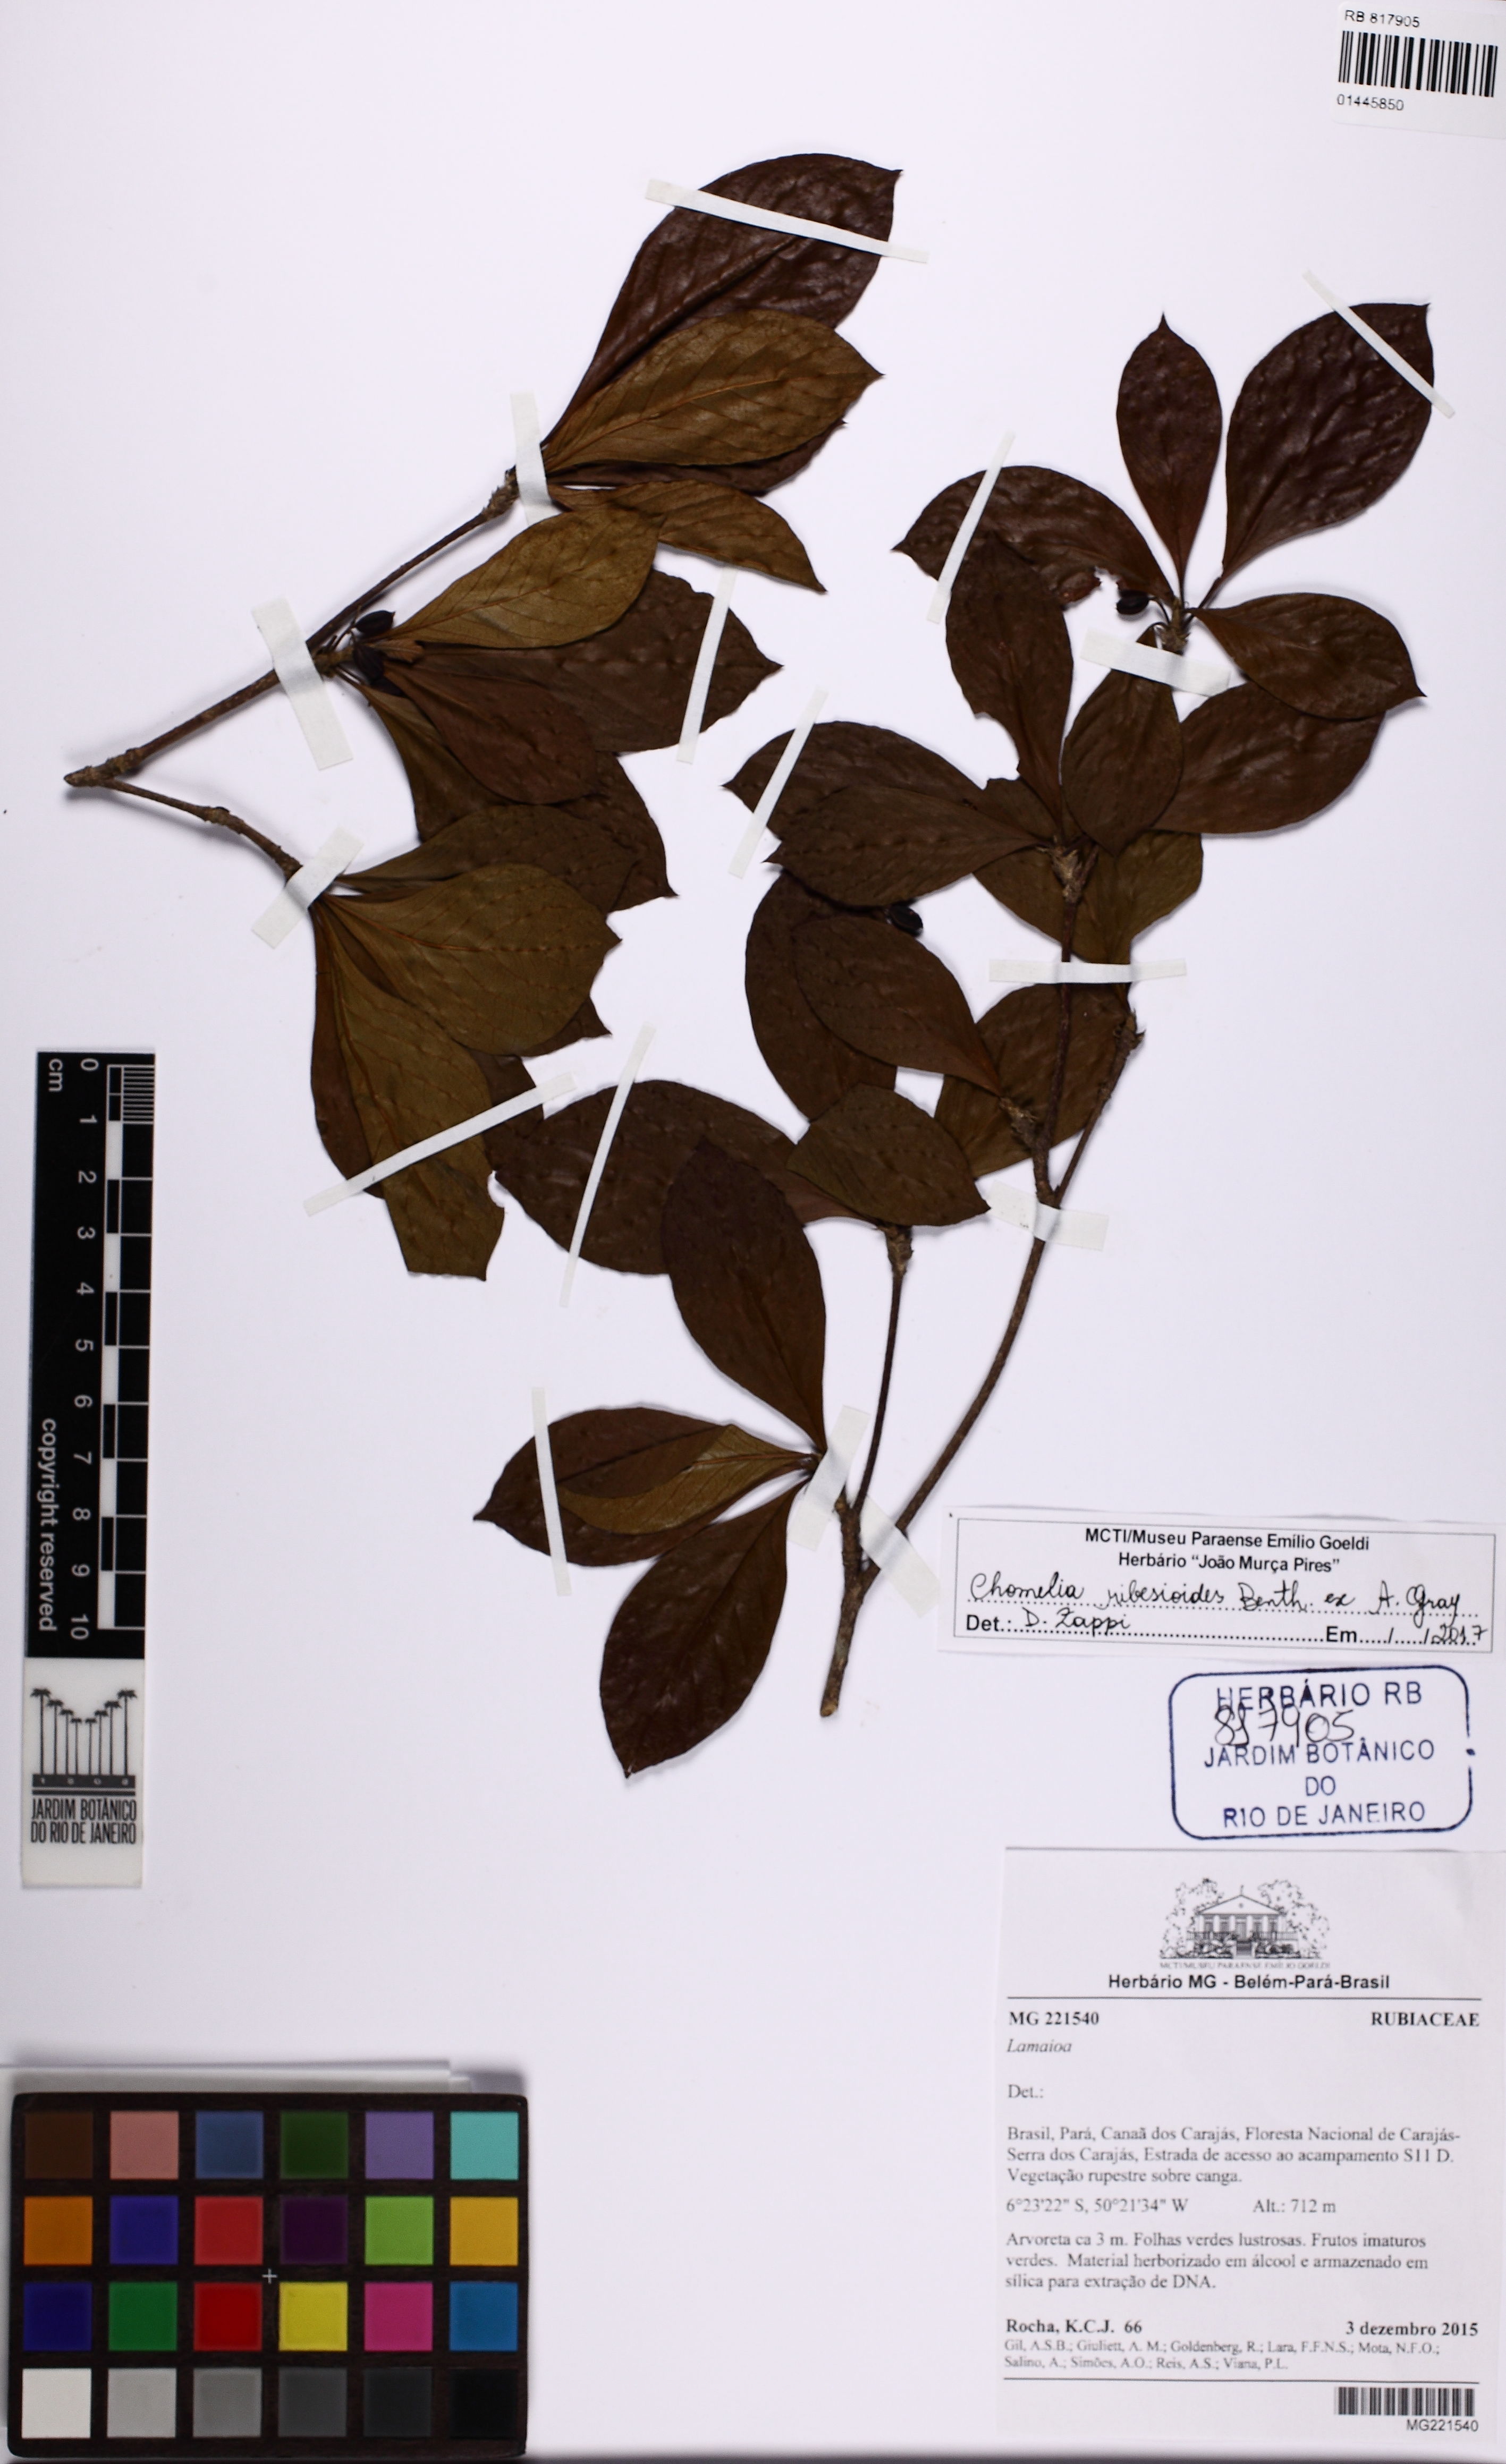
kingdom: Plantae
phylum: Tracheophyta
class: Magnoliopsida
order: Gentianales
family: Rubiaceae
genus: Chomelia
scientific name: Chomelia ribesioides
